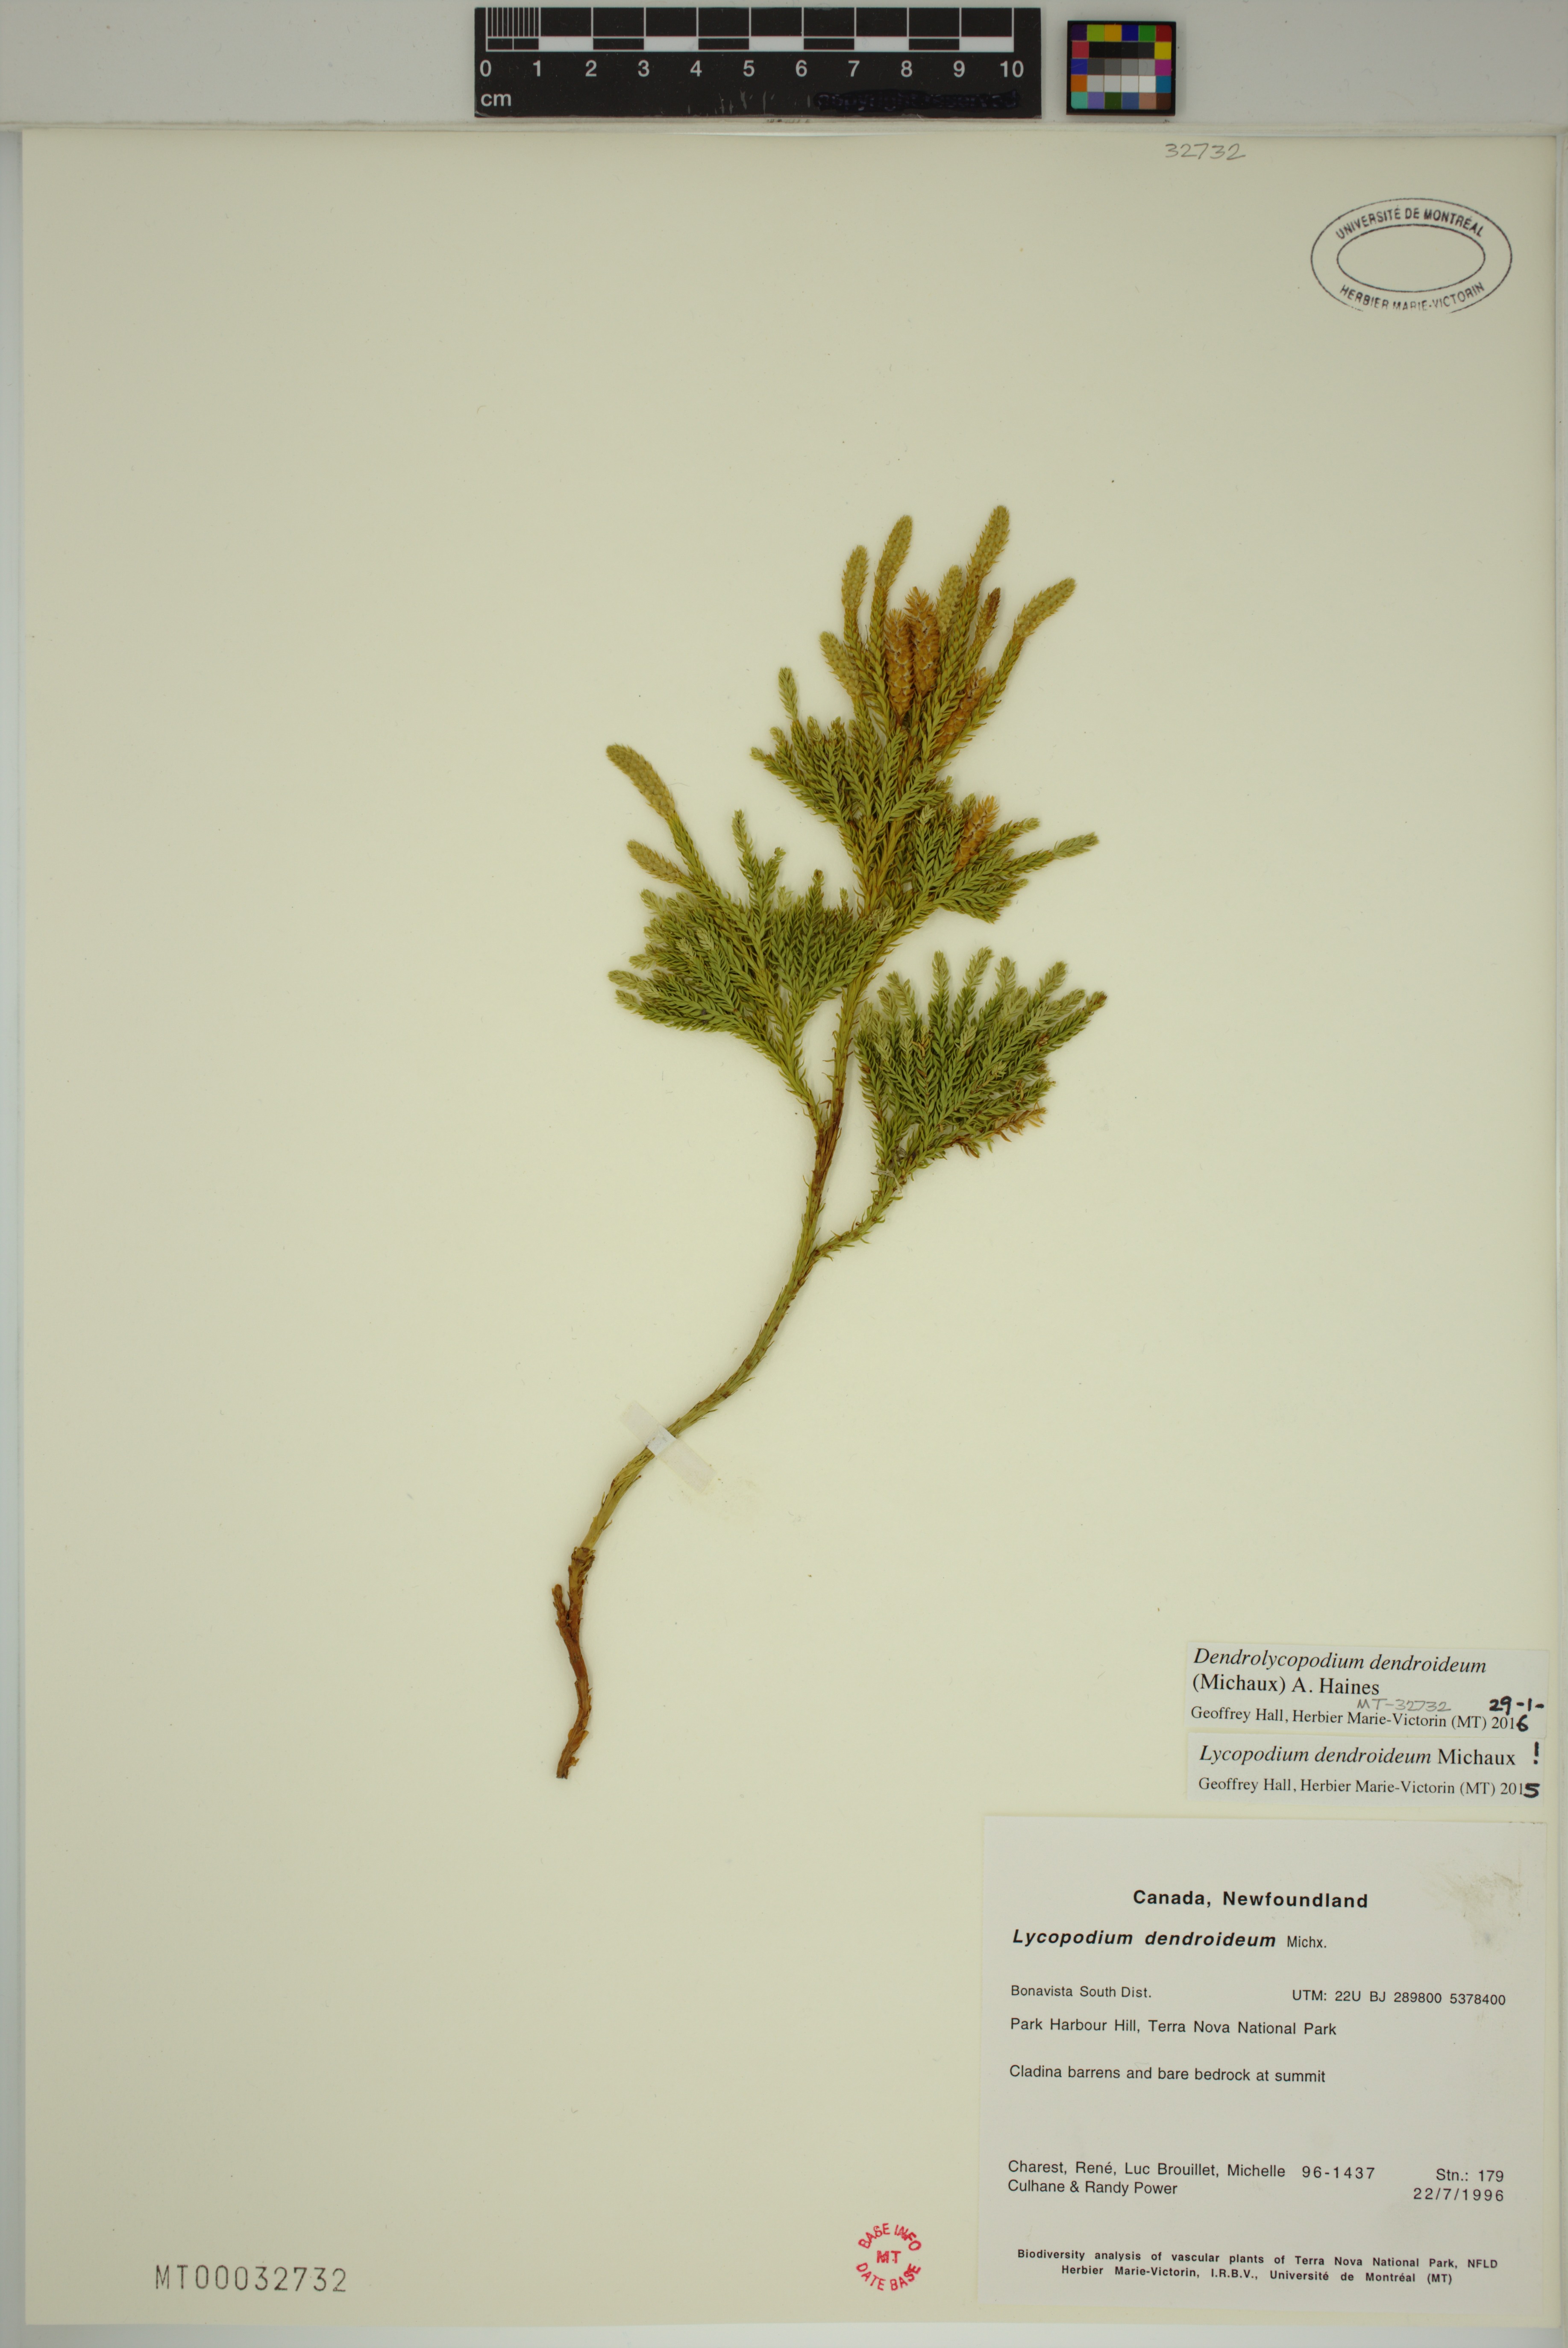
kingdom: Plantae
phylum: Tracheophyta
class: Lycopodiopsida
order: Lycopodiales
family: Lycopodiaceae
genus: Dendrolycopodium
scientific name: Dendrolycopodium dendroideum
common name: Northern tree-clubmoss
